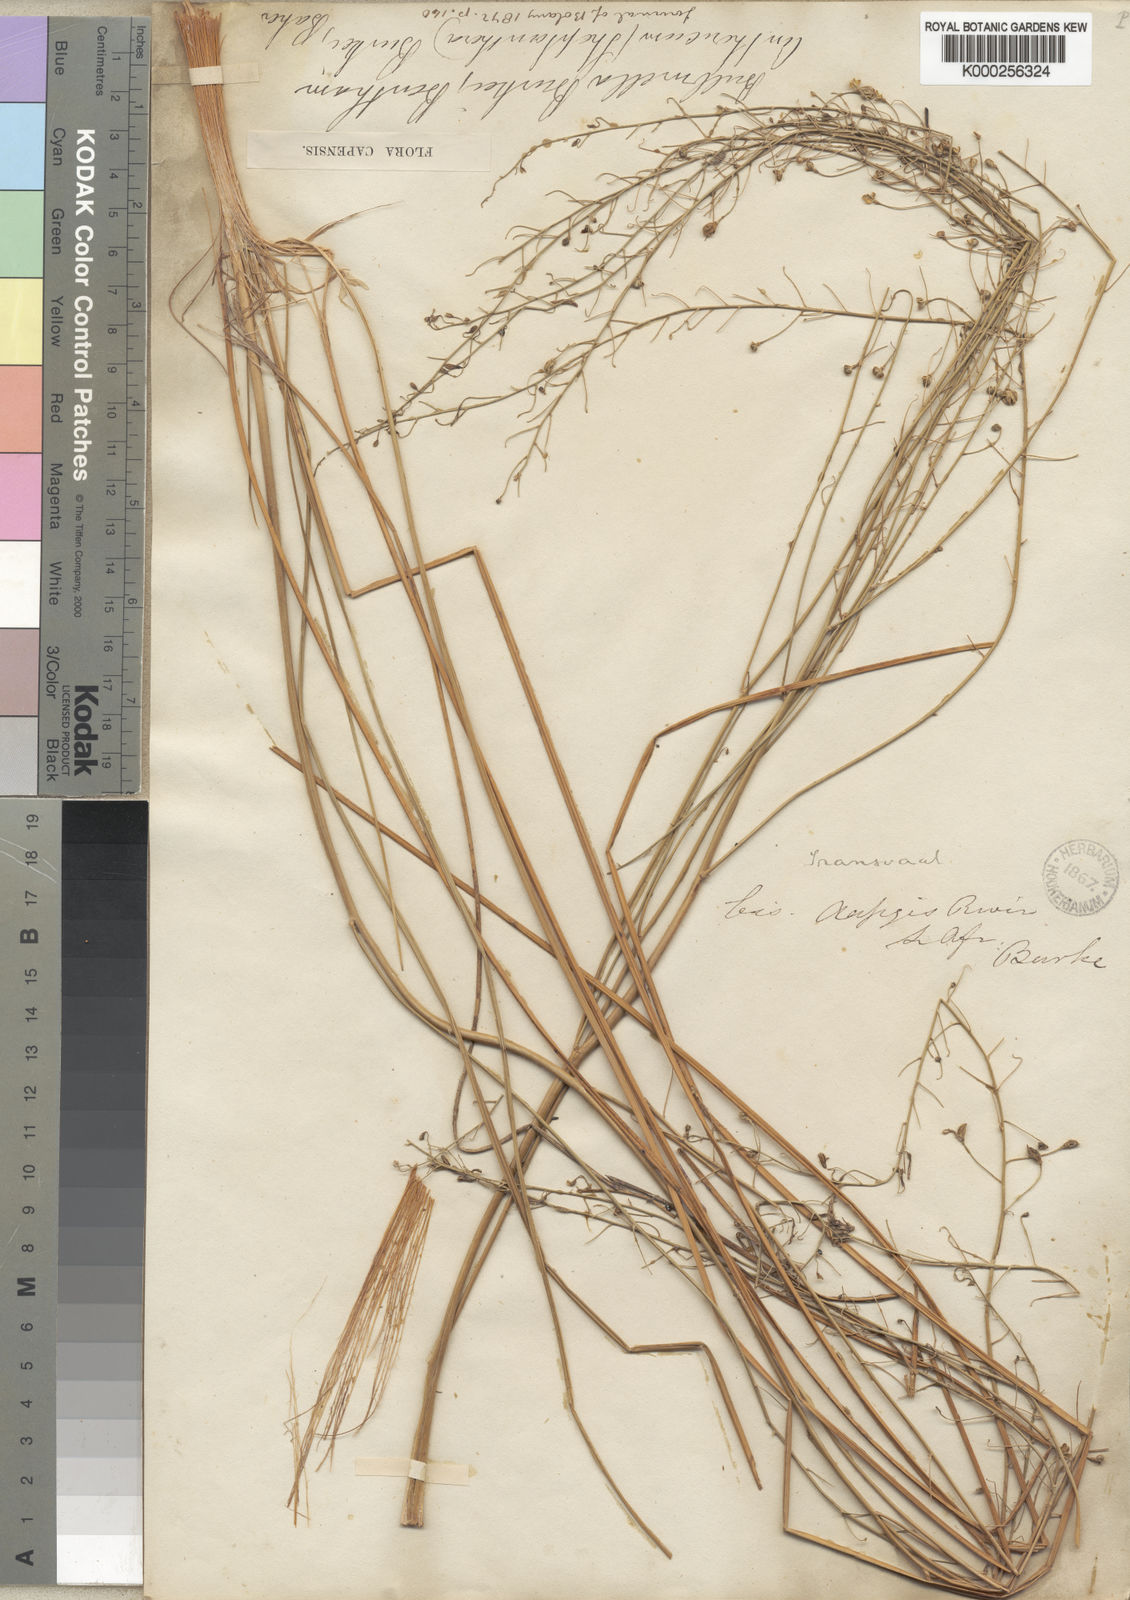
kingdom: Plantae
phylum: Tracheophyta
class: Liliopsida
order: Asparagales
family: Asphodelaceae
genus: Trachyandra
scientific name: Trachyandra burkei
